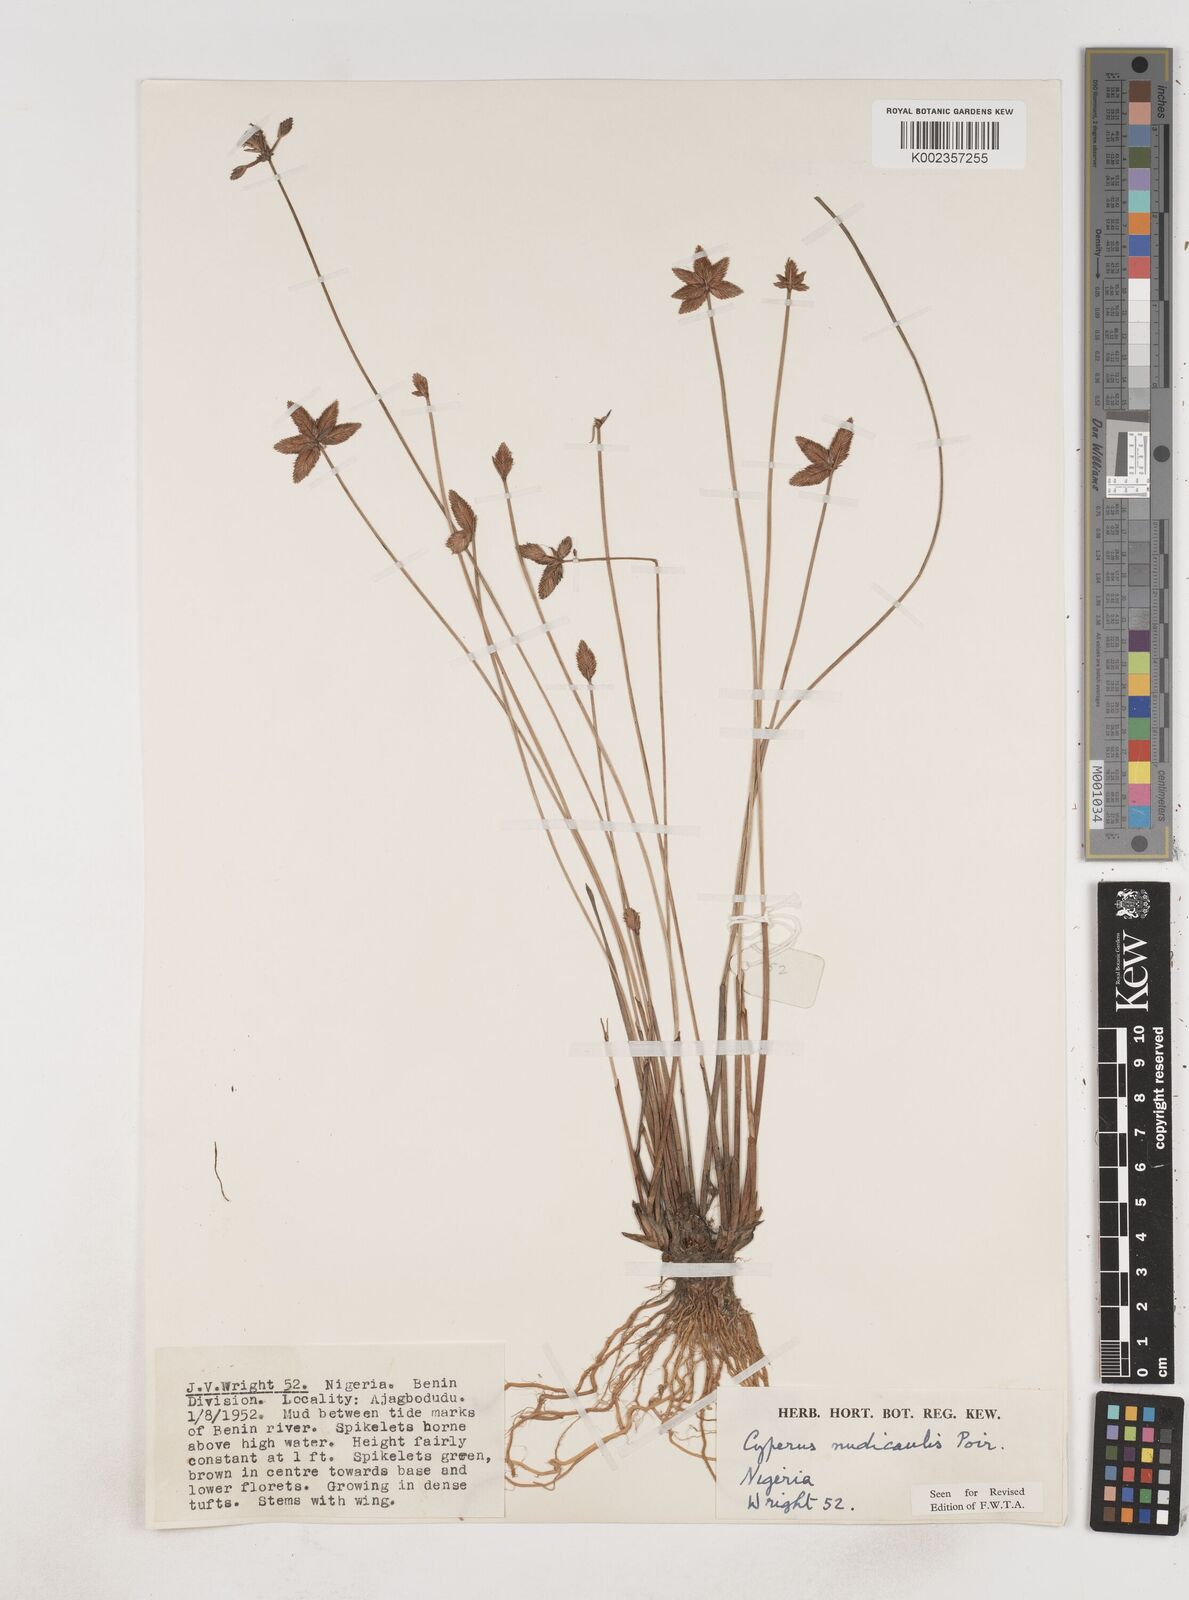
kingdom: Plantae
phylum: Tracheophyta
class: Liliopsida
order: Poales
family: Cyperaceae
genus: Cyperus
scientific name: Cyperus pectinatus
